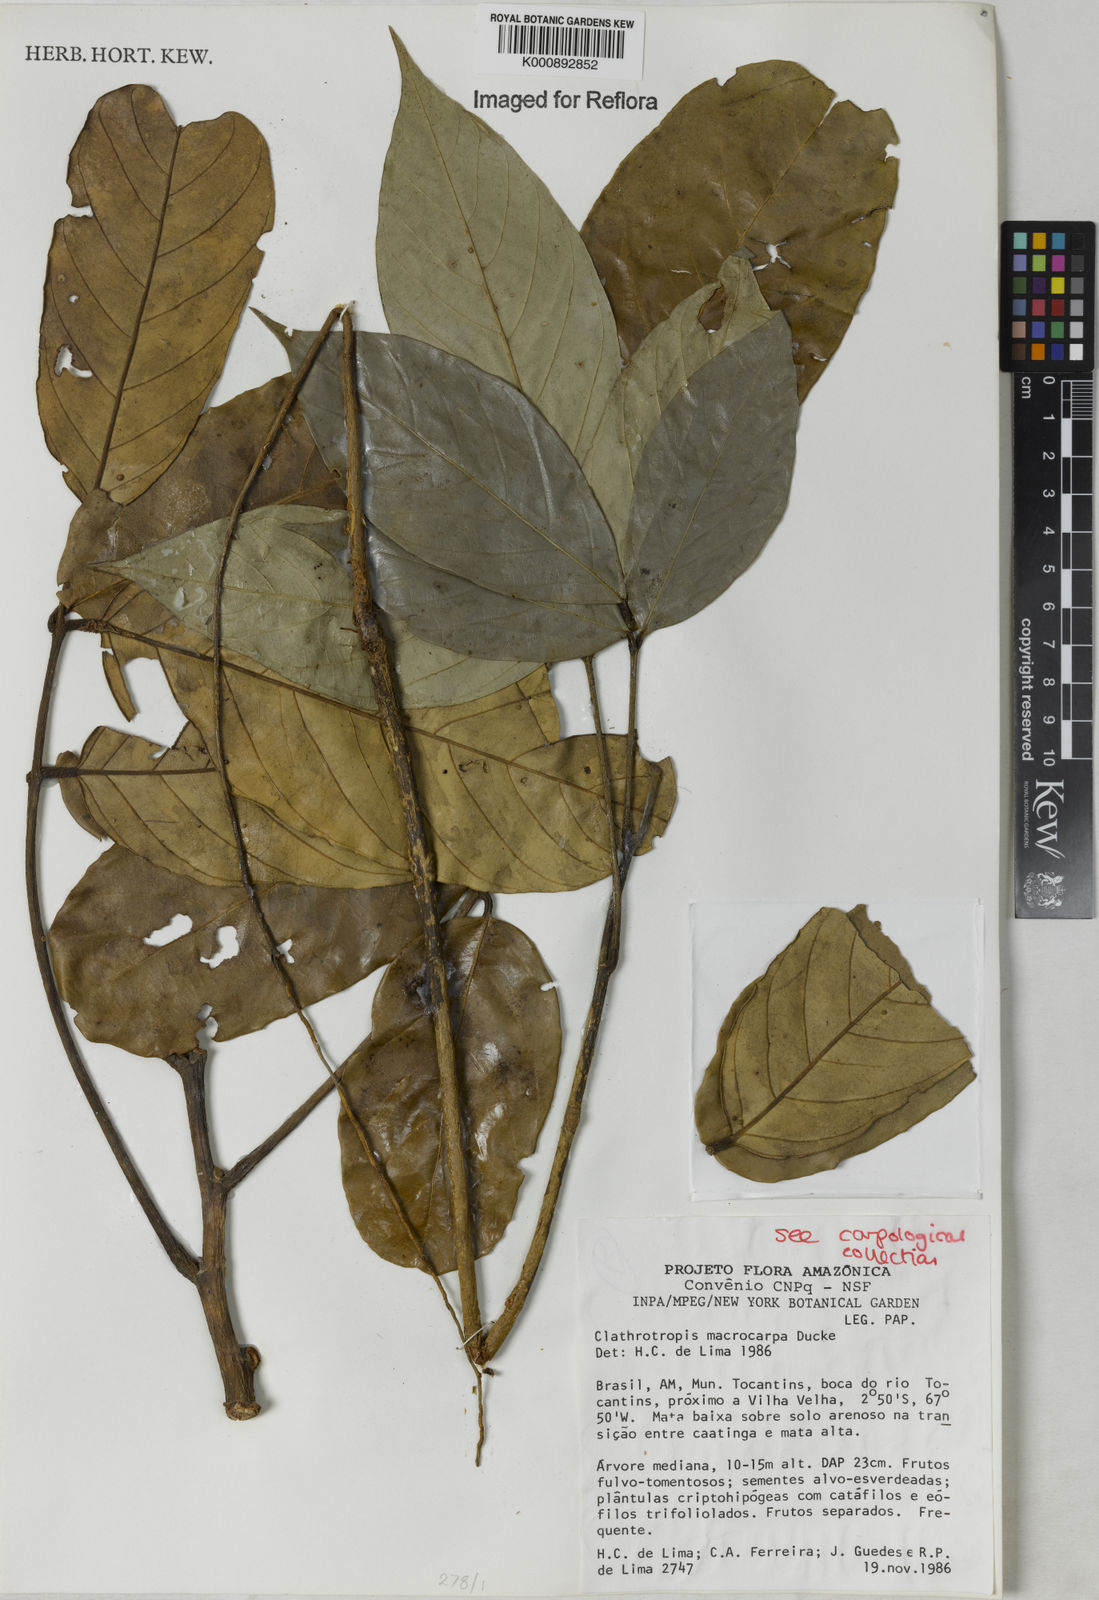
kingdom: Plantae
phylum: Tracheophyta
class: Magnoliopsida
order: Fabales
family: Fabaceae
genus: Clathrotropis
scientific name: Clathrotropis macrocarpa
